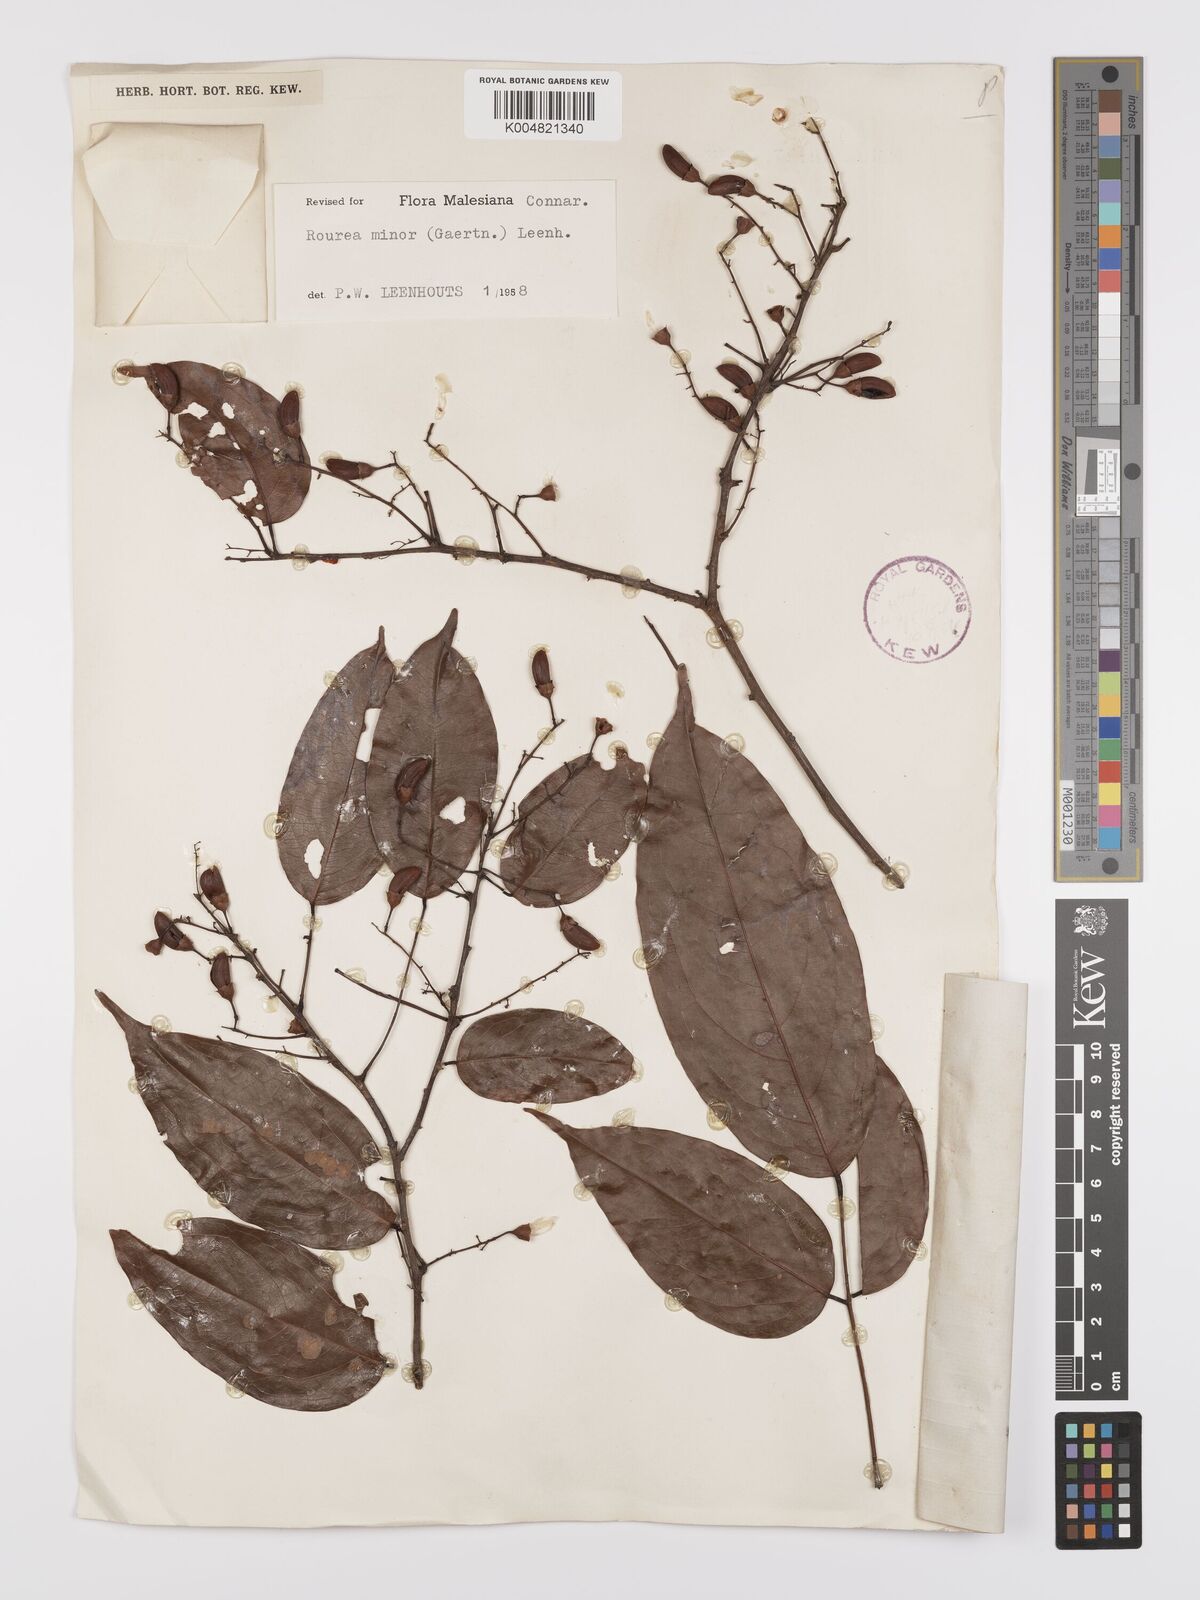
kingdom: Plantae
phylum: Tracheophyta
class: Magnoliopsida
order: Oxalidales
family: Connaraceae
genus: Rourea
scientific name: Rourea minor
